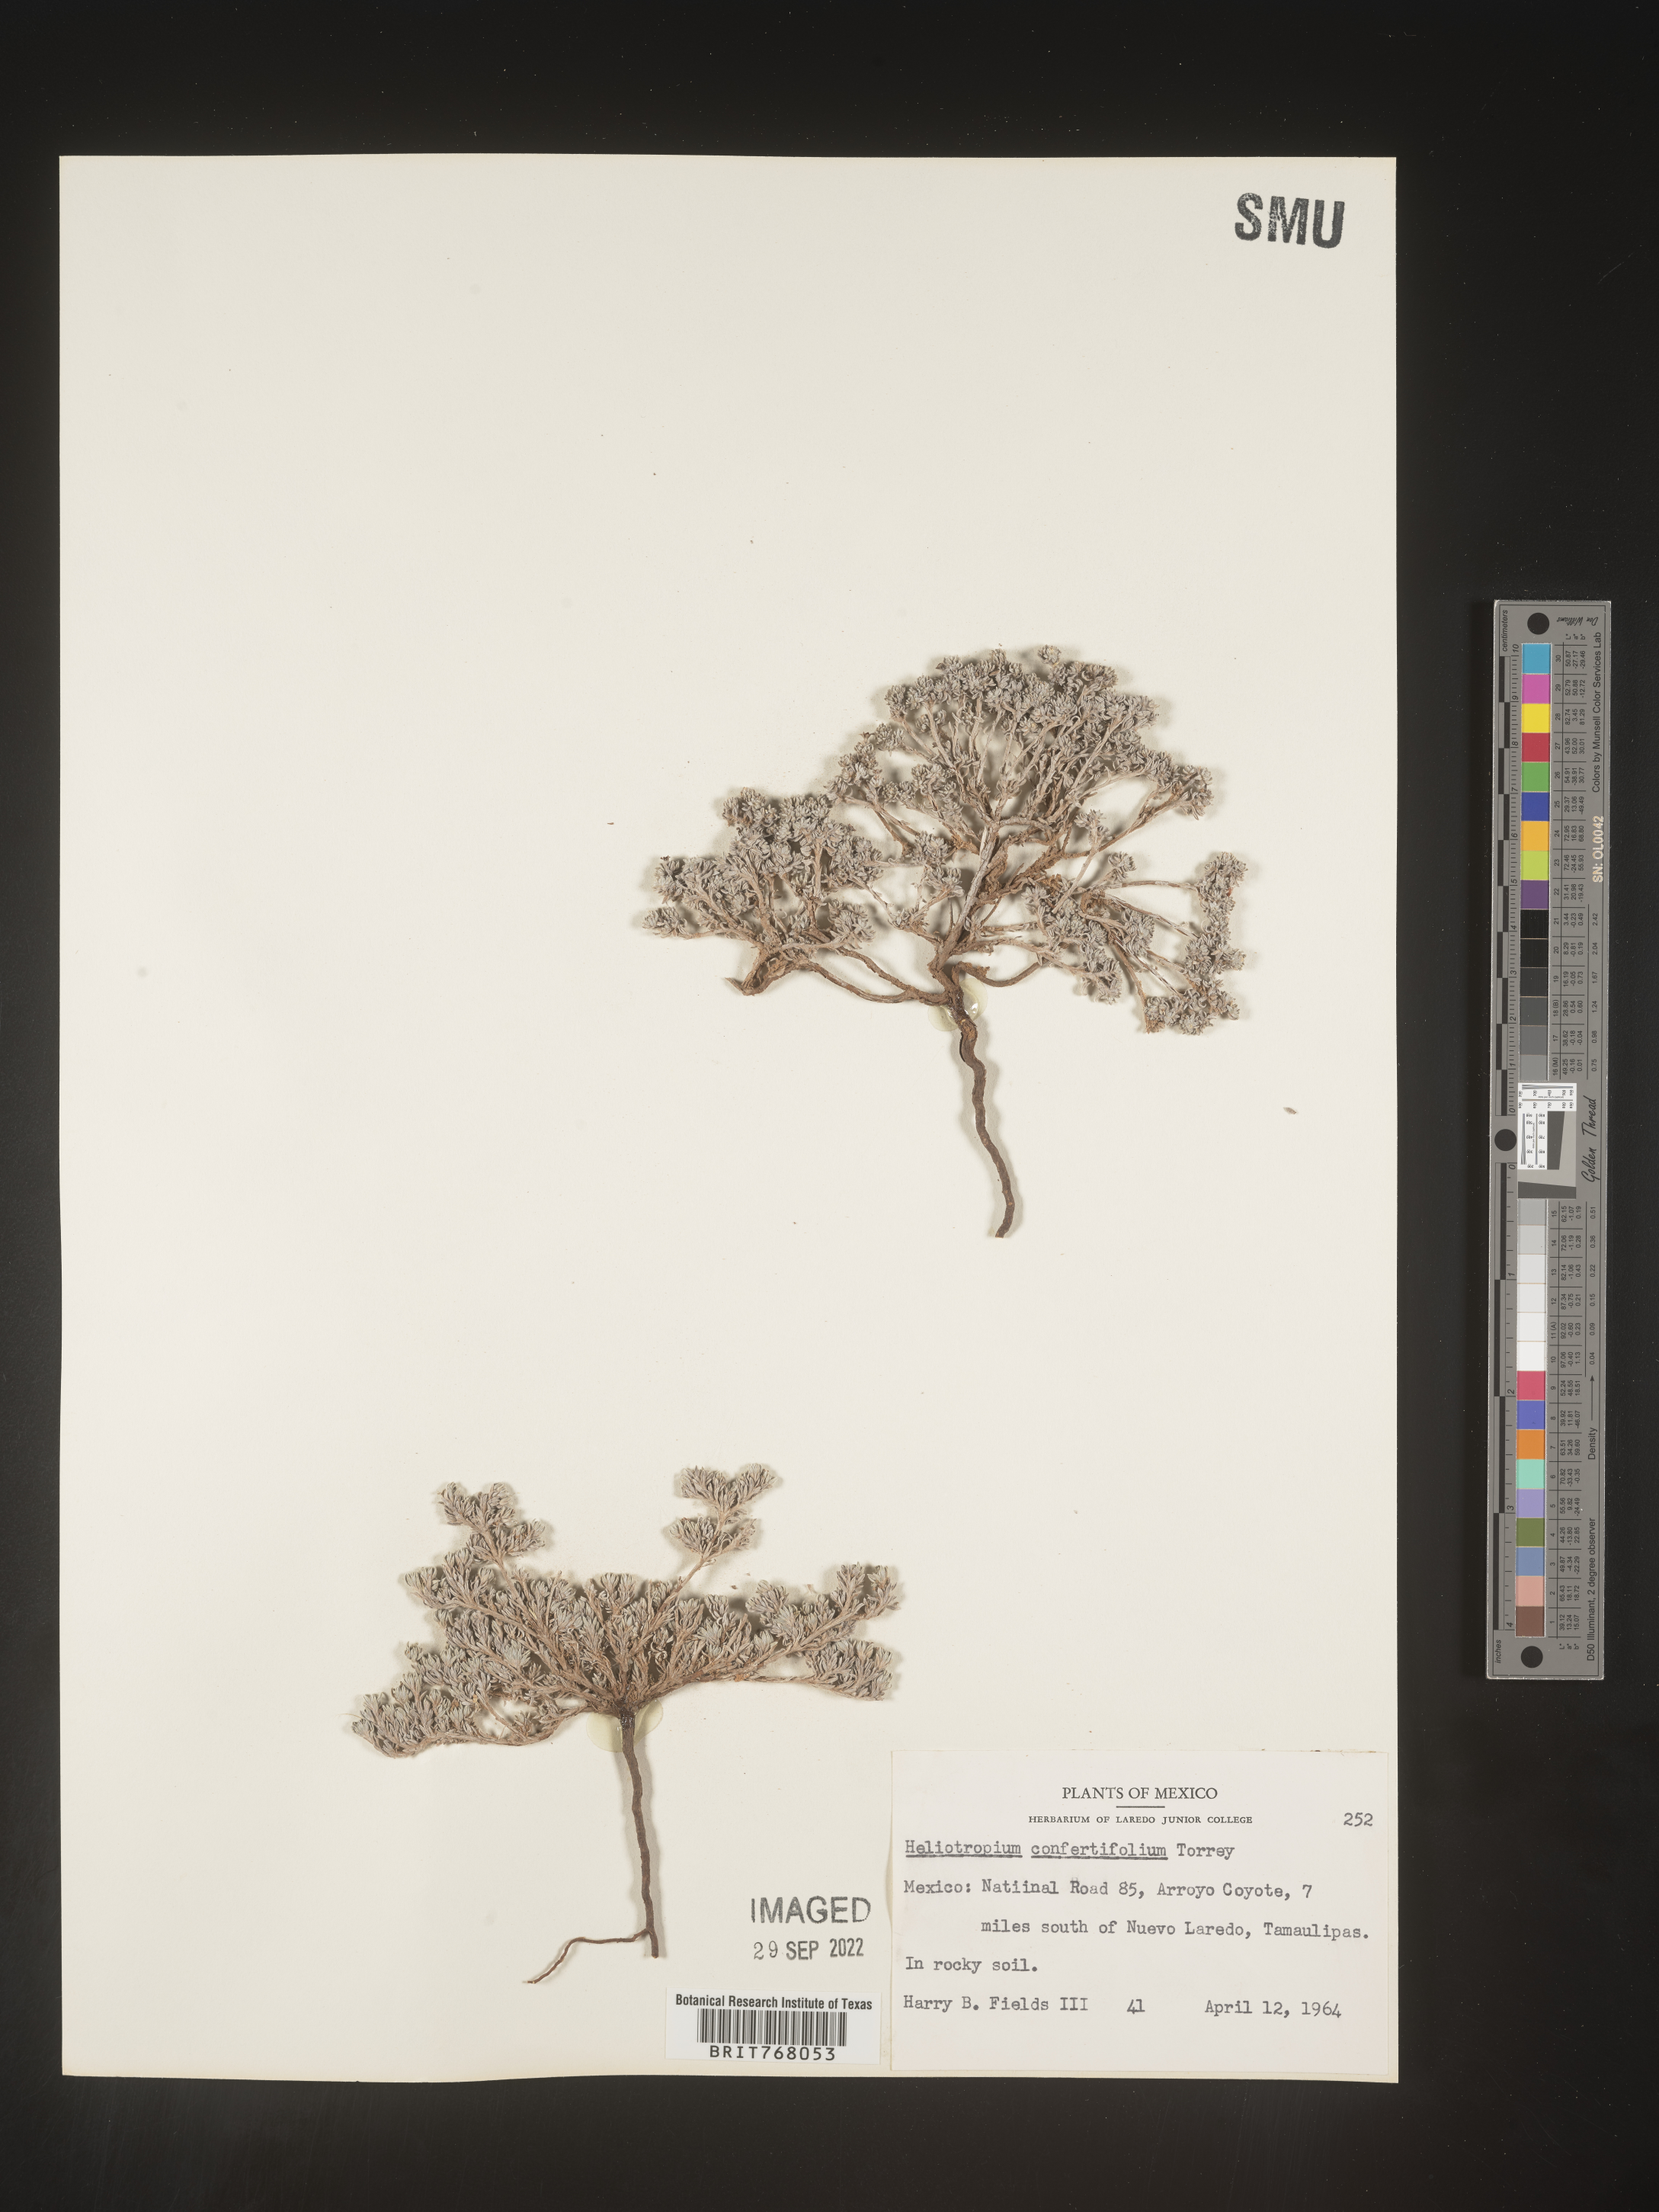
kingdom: Plantae
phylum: Tracheophyta
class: Magnoliopsida
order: Boraginales
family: Heliotropiaceae
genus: Heliotropium
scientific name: Heliotropium
